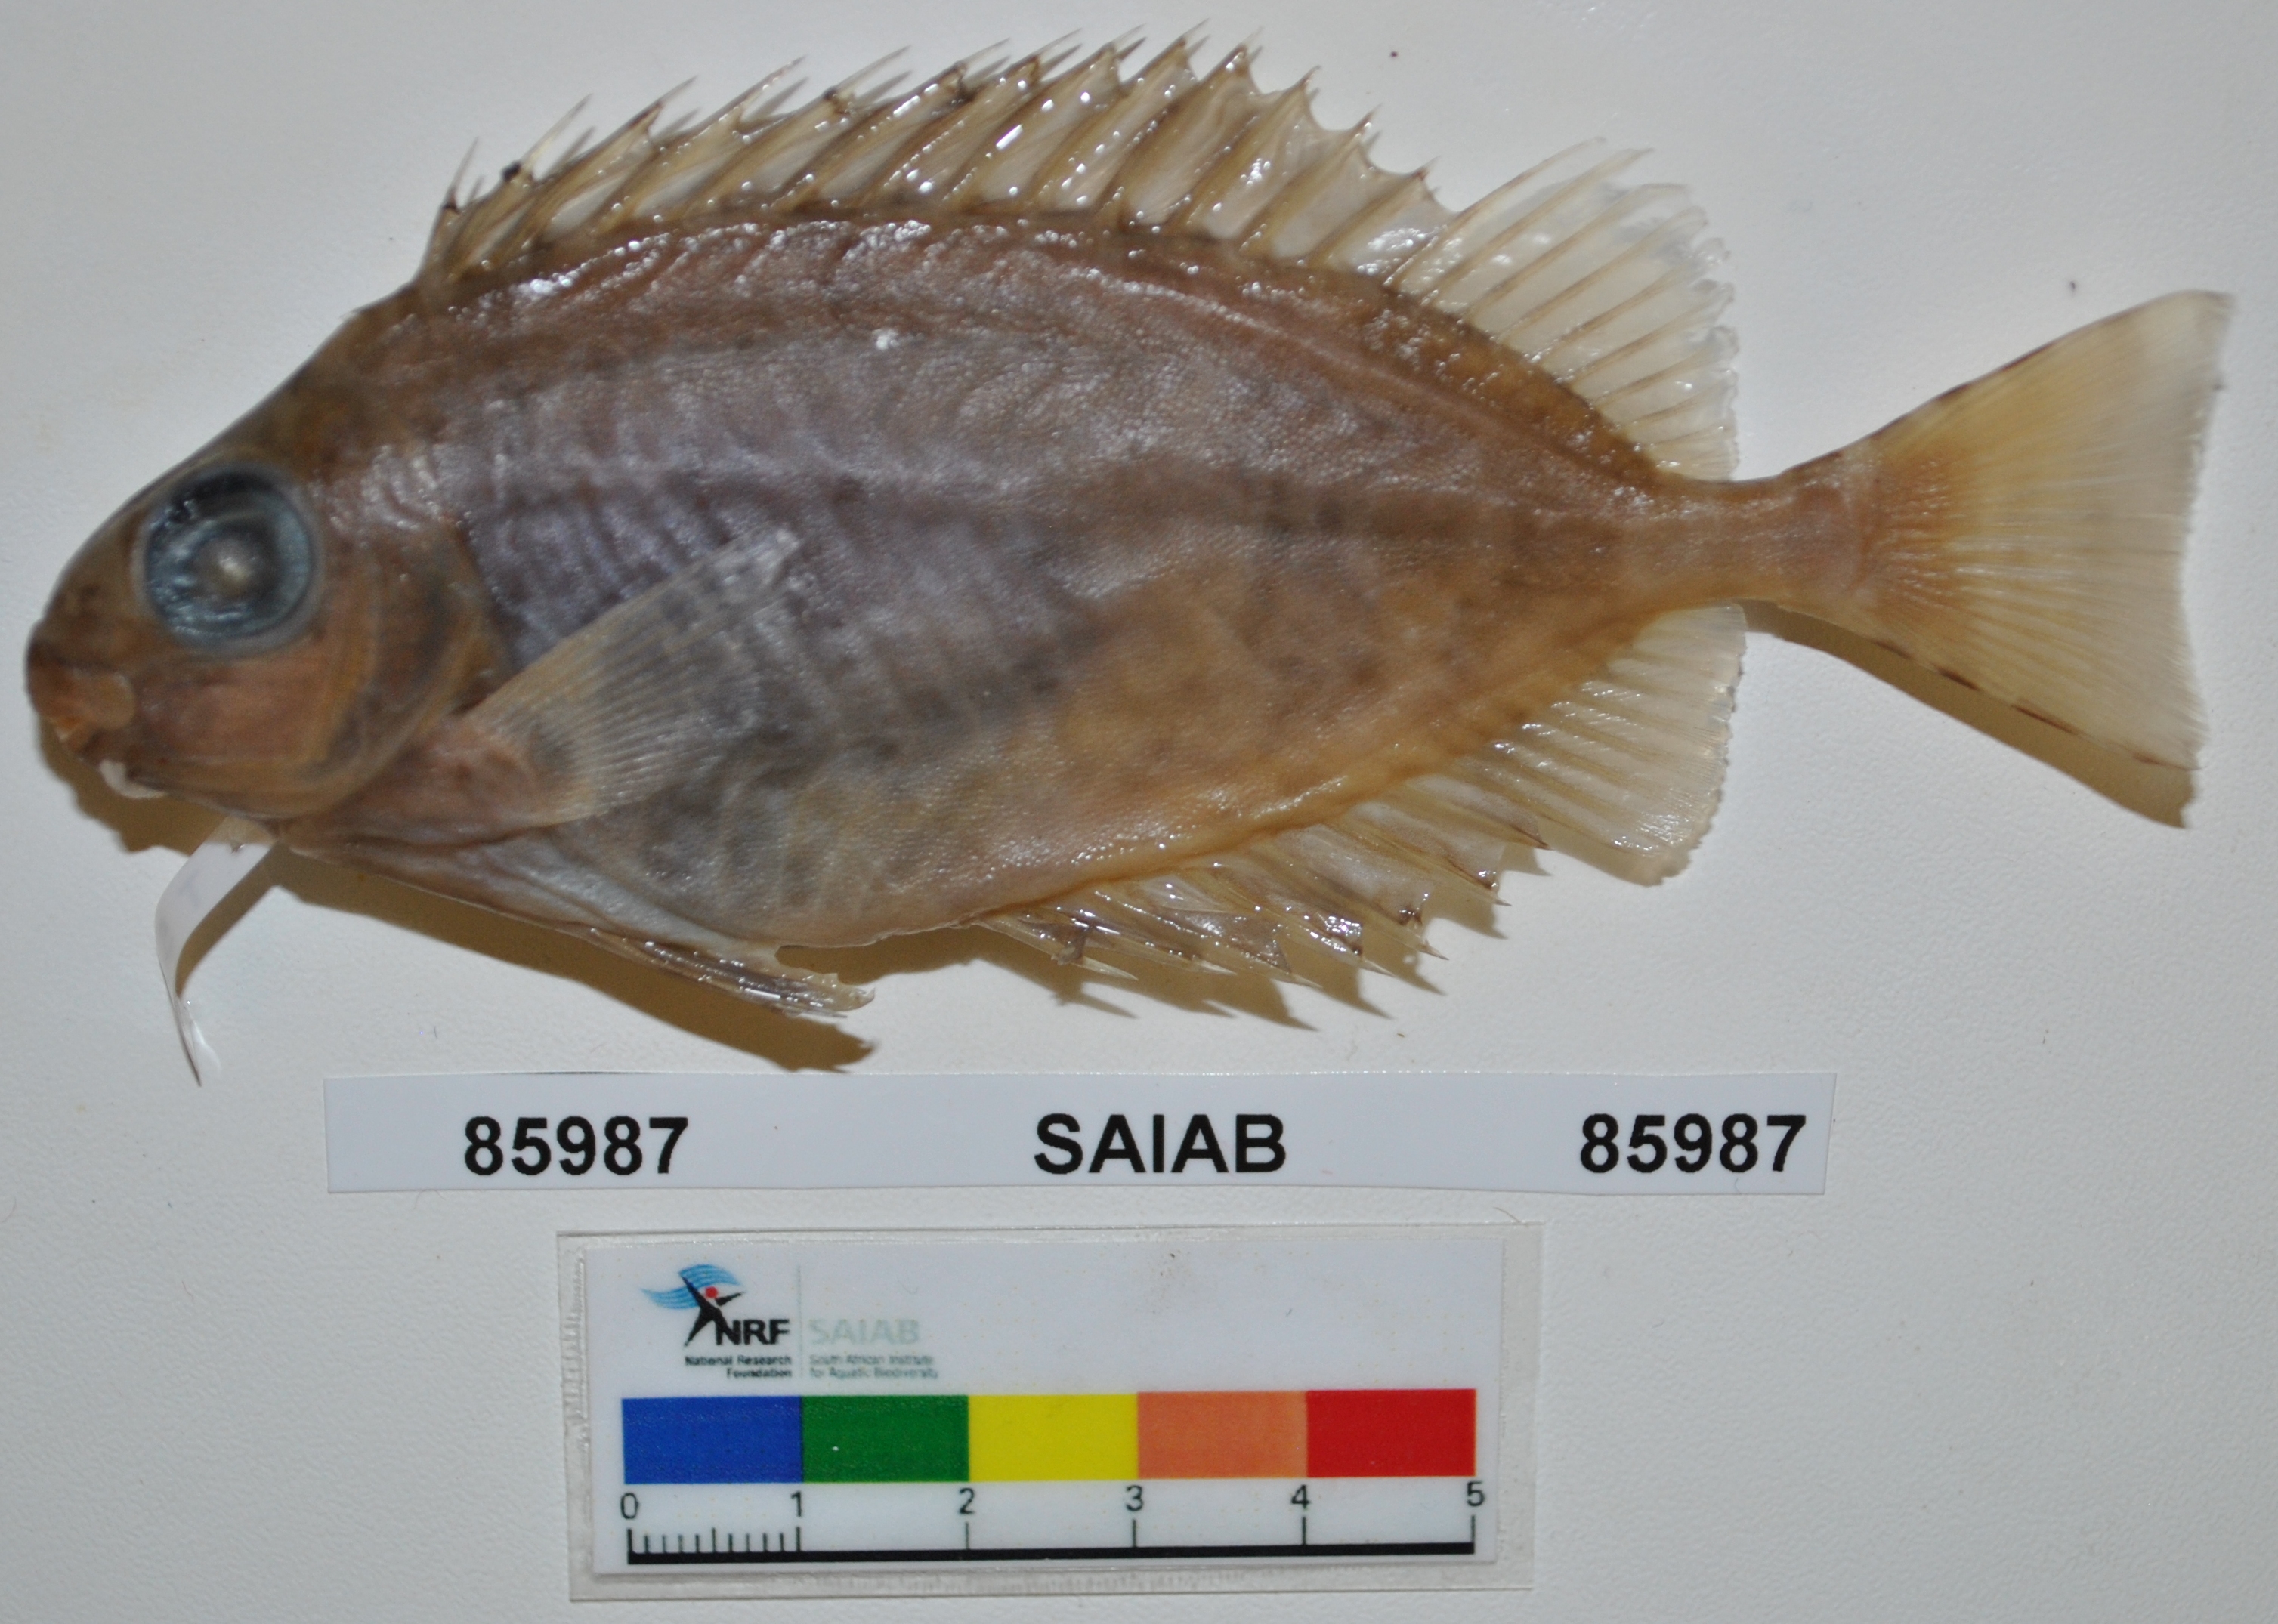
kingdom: Animalia
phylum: Chordata
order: Perciformes
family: Siganidae
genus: Siganus
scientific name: Siganus spinus
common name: Scribbled rabbitfish
